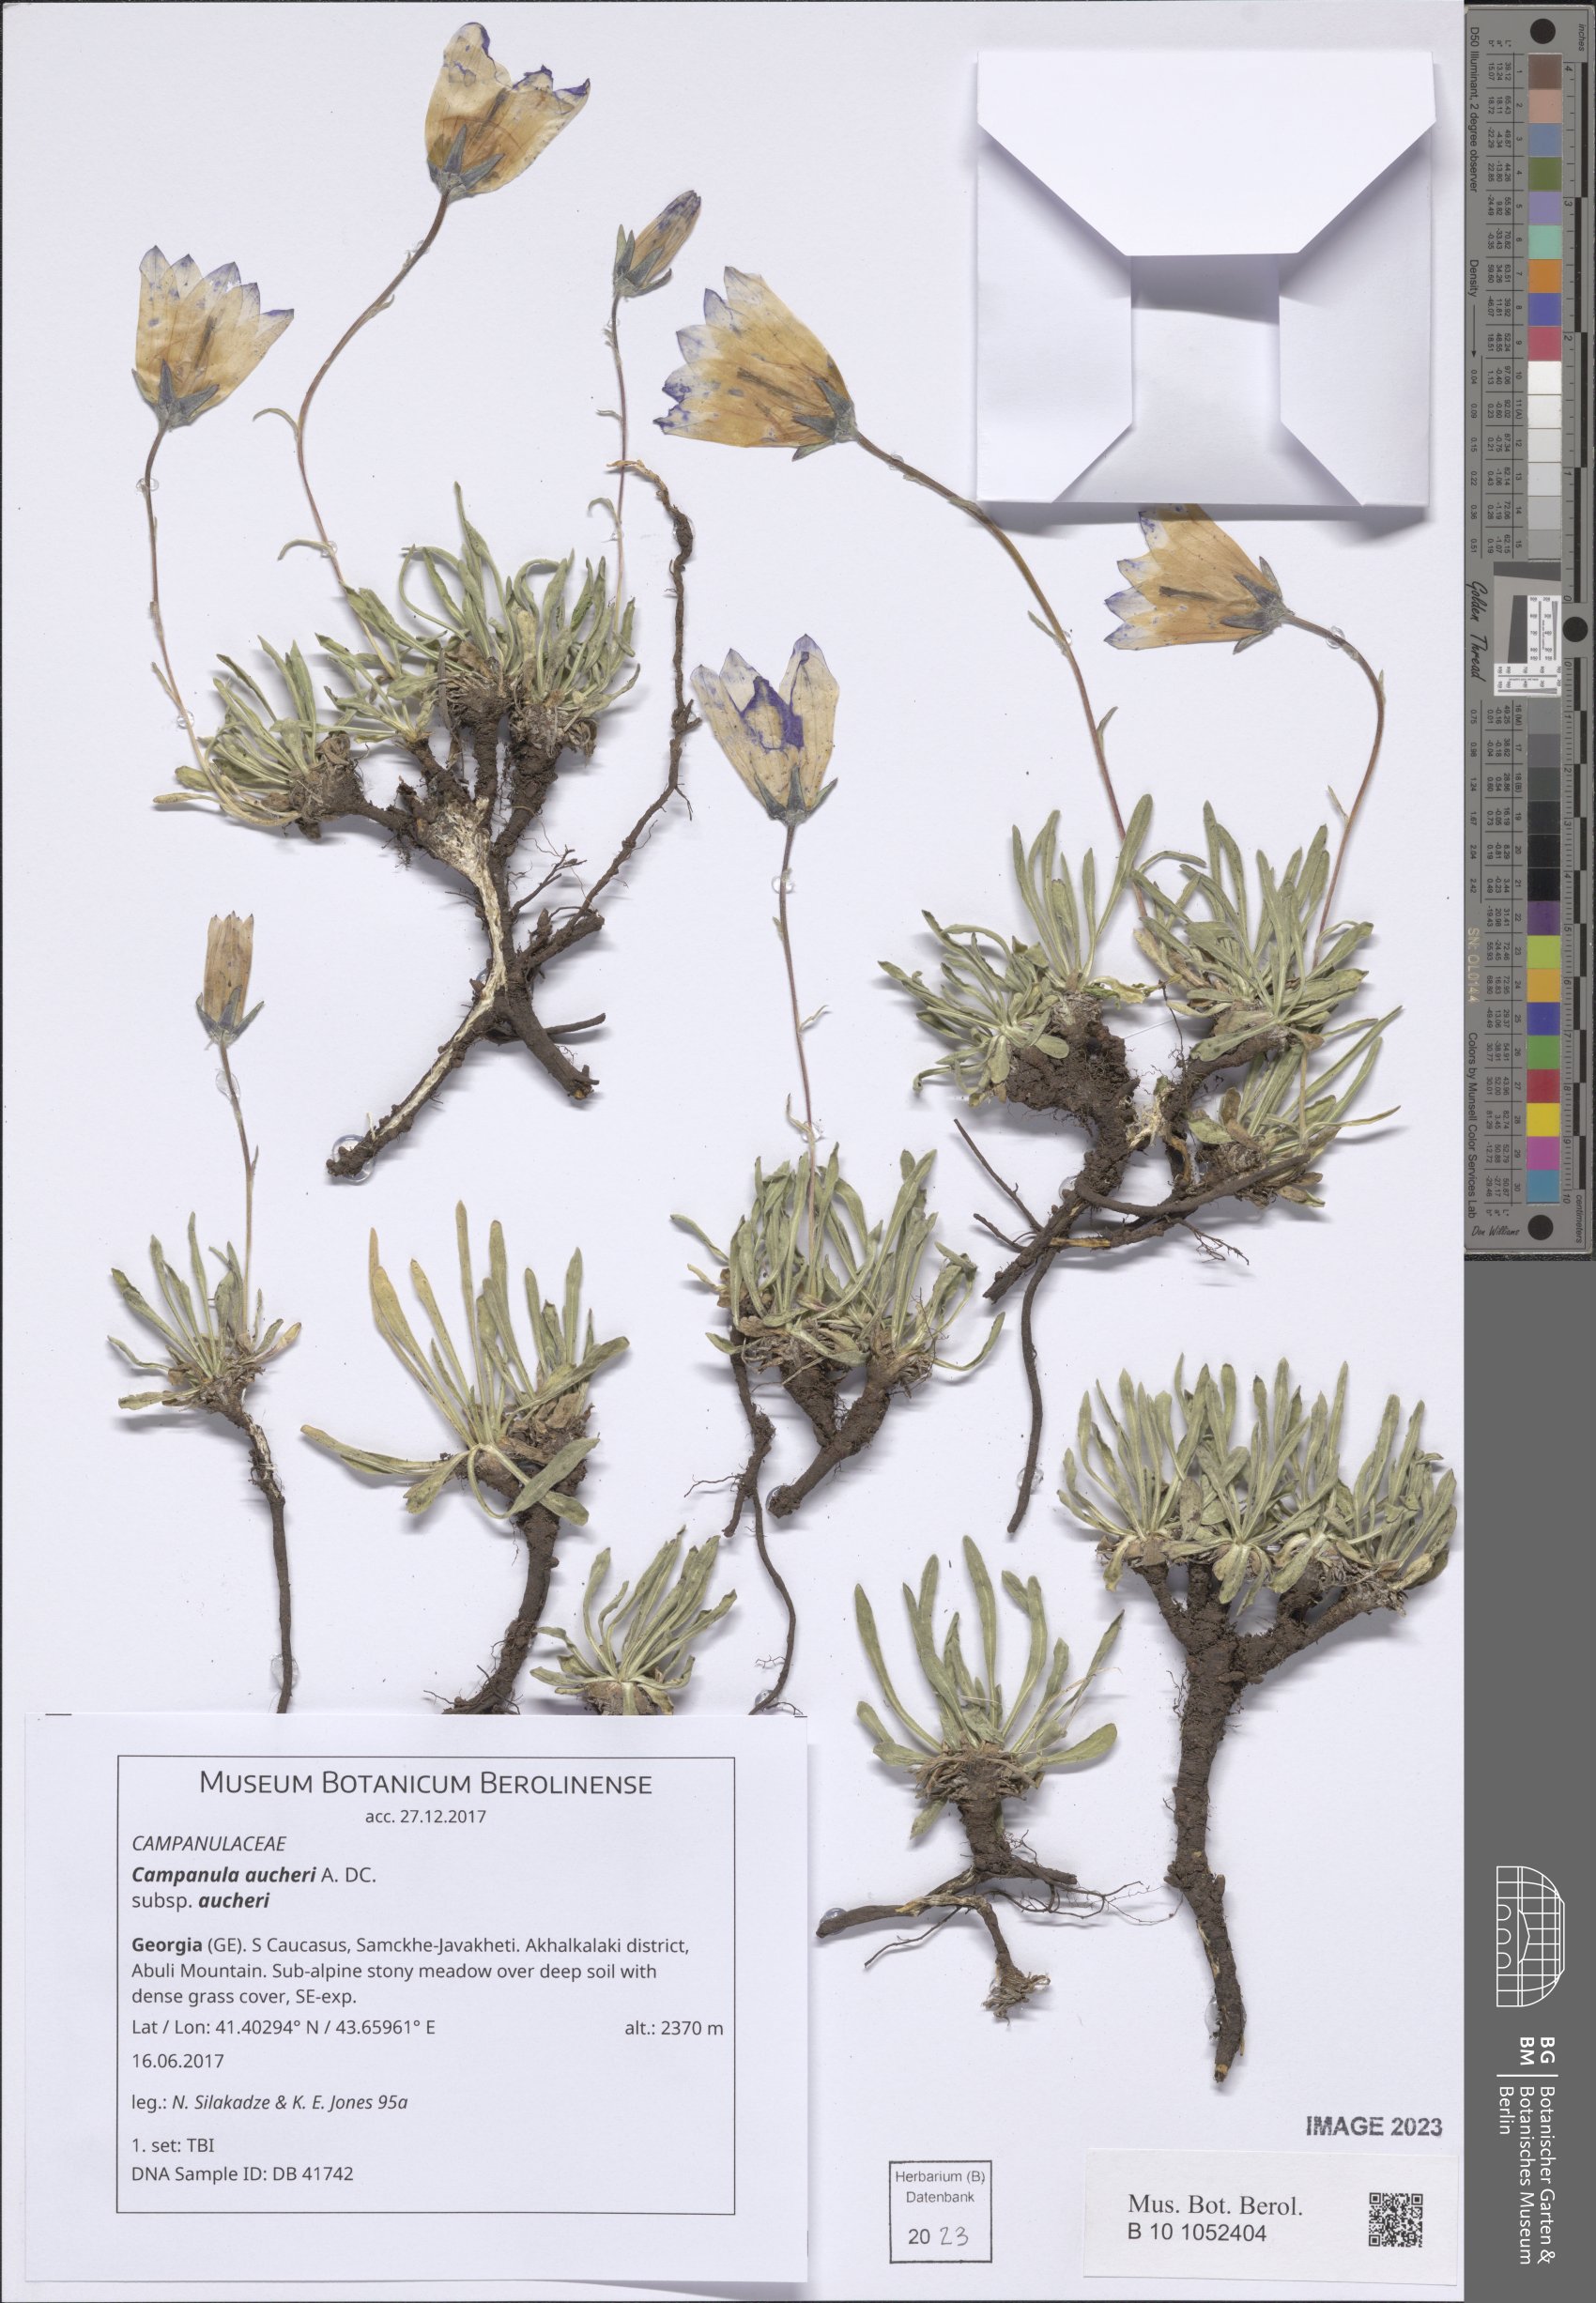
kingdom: Plantae
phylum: Tracheophyta
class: Magnoliopsida
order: Asterales
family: Campanulaceae
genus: Campanula
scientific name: Campanula saxifraga
